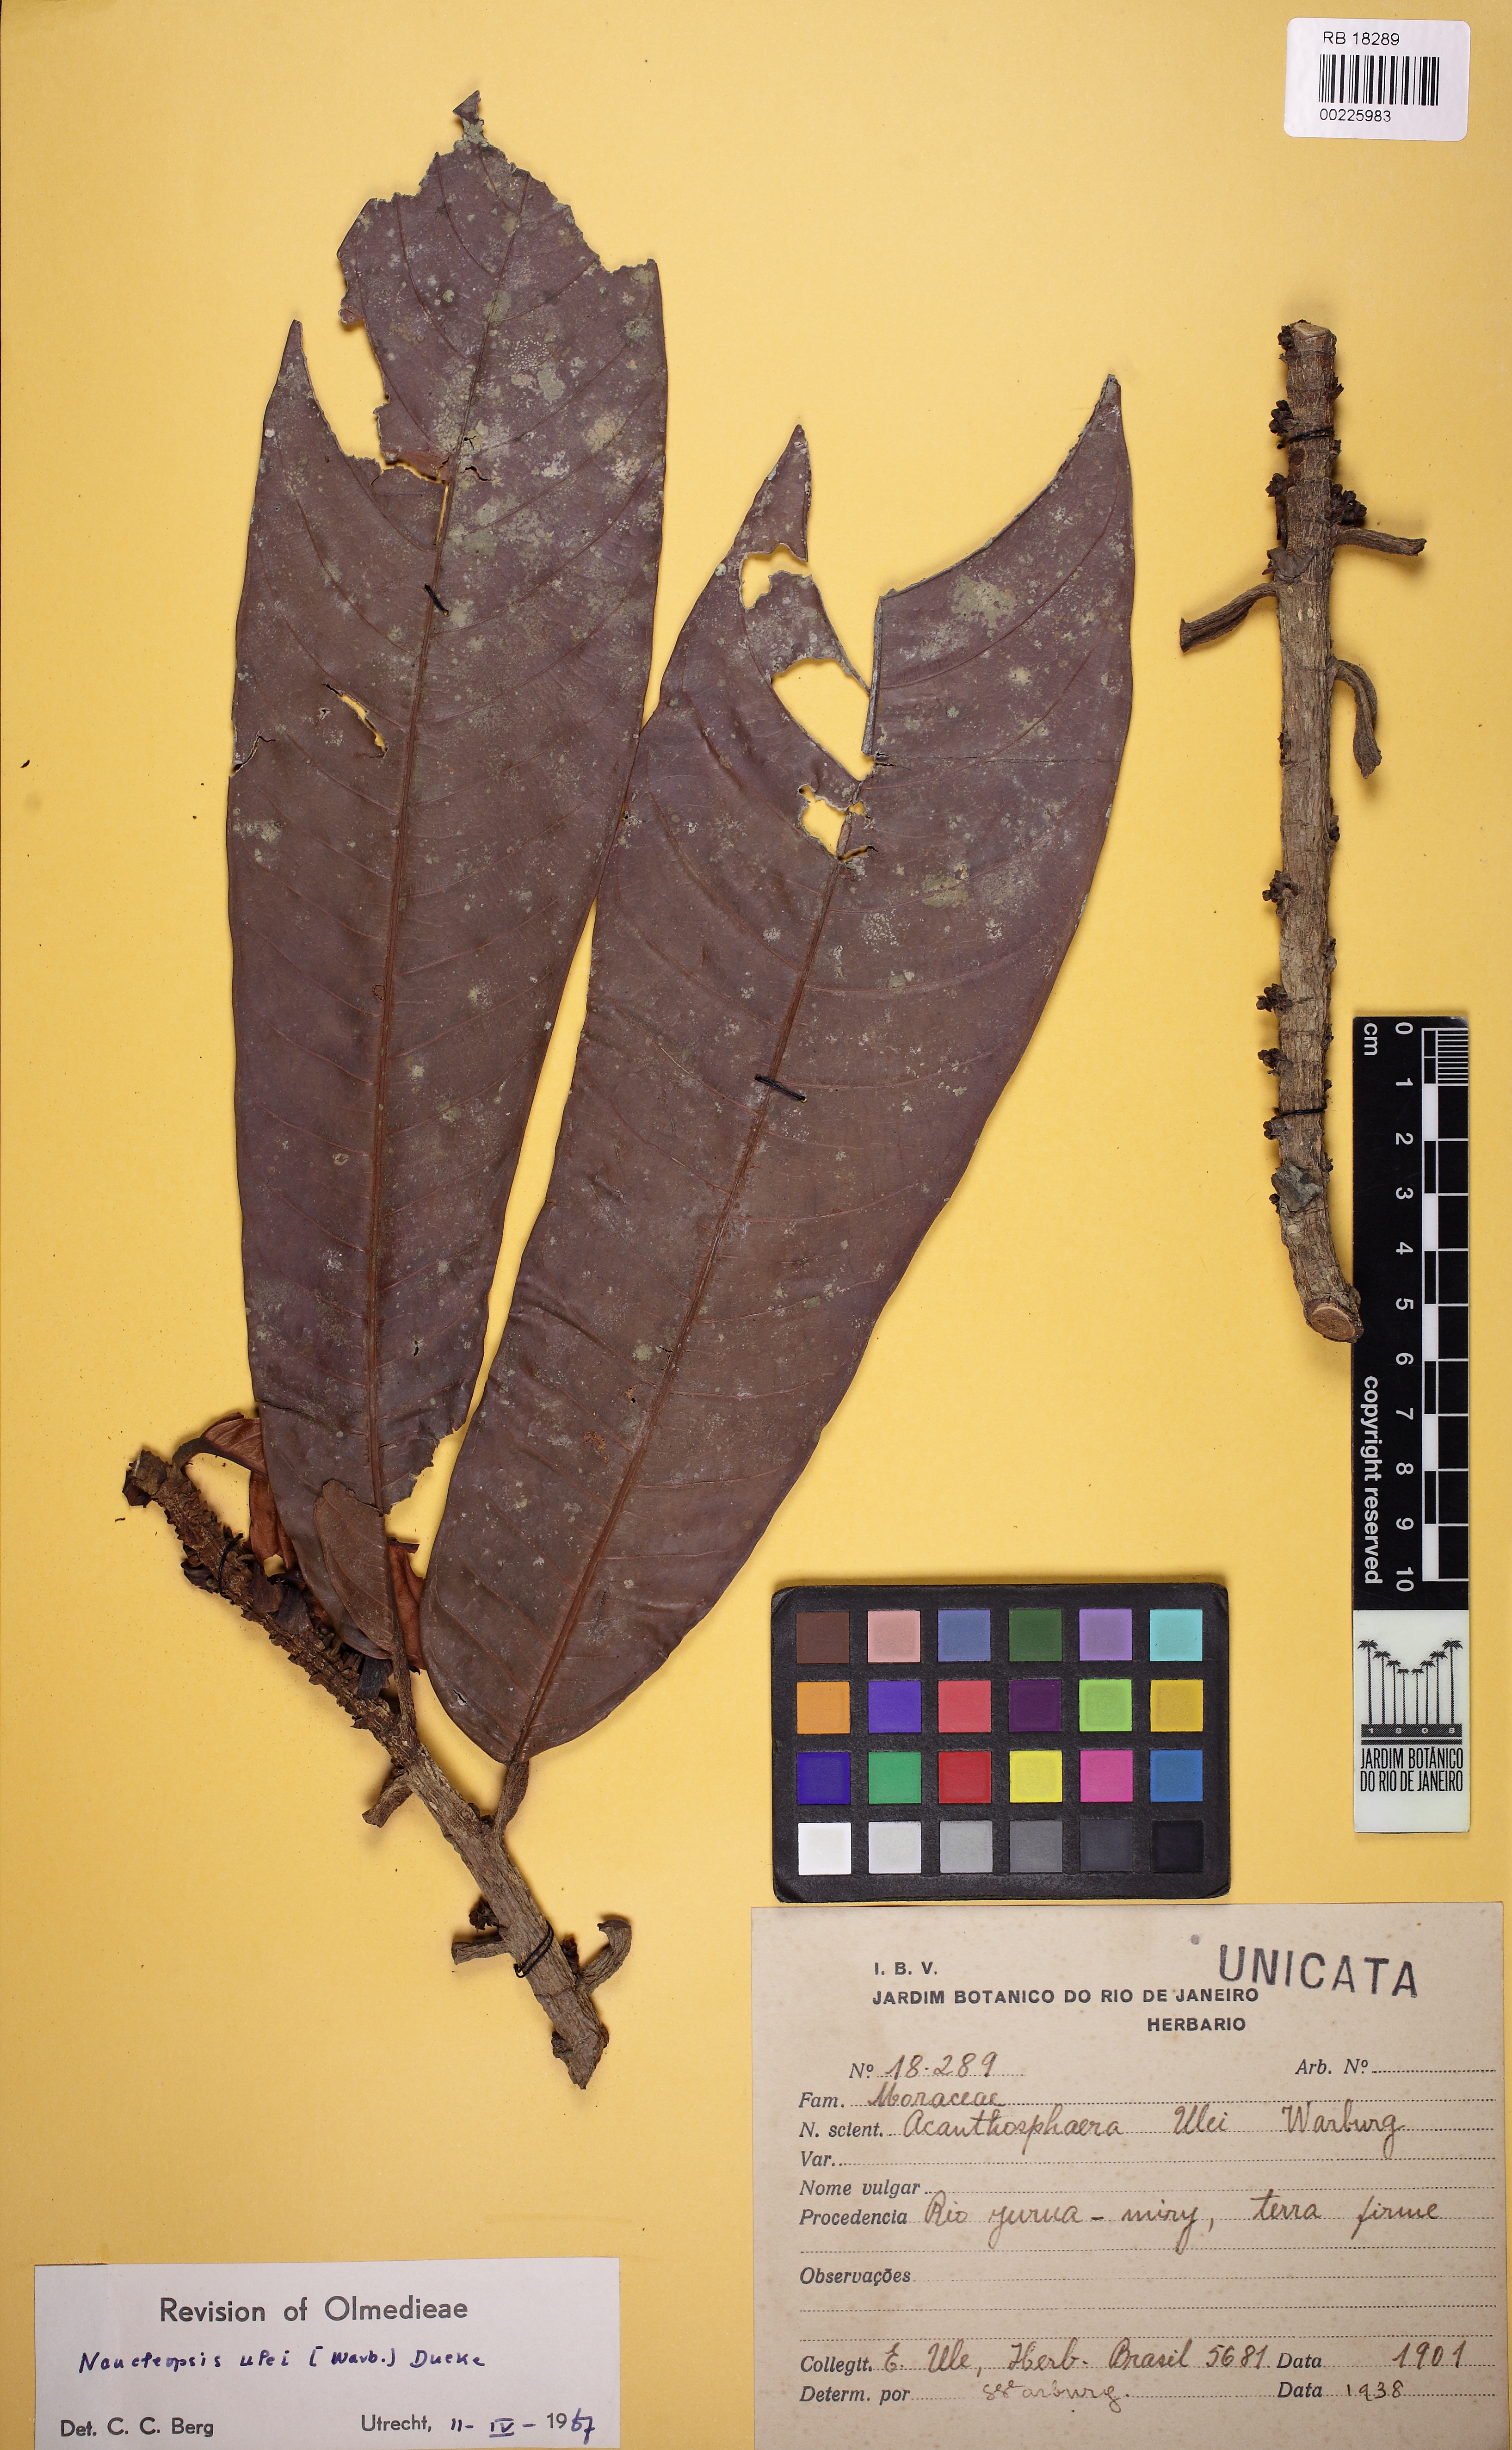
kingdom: Plantae
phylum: Tracheophyta
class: Magnoliopsida
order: Rosales
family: Moraceae
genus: Naucleopsis
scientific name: Naucleopsis ulei
